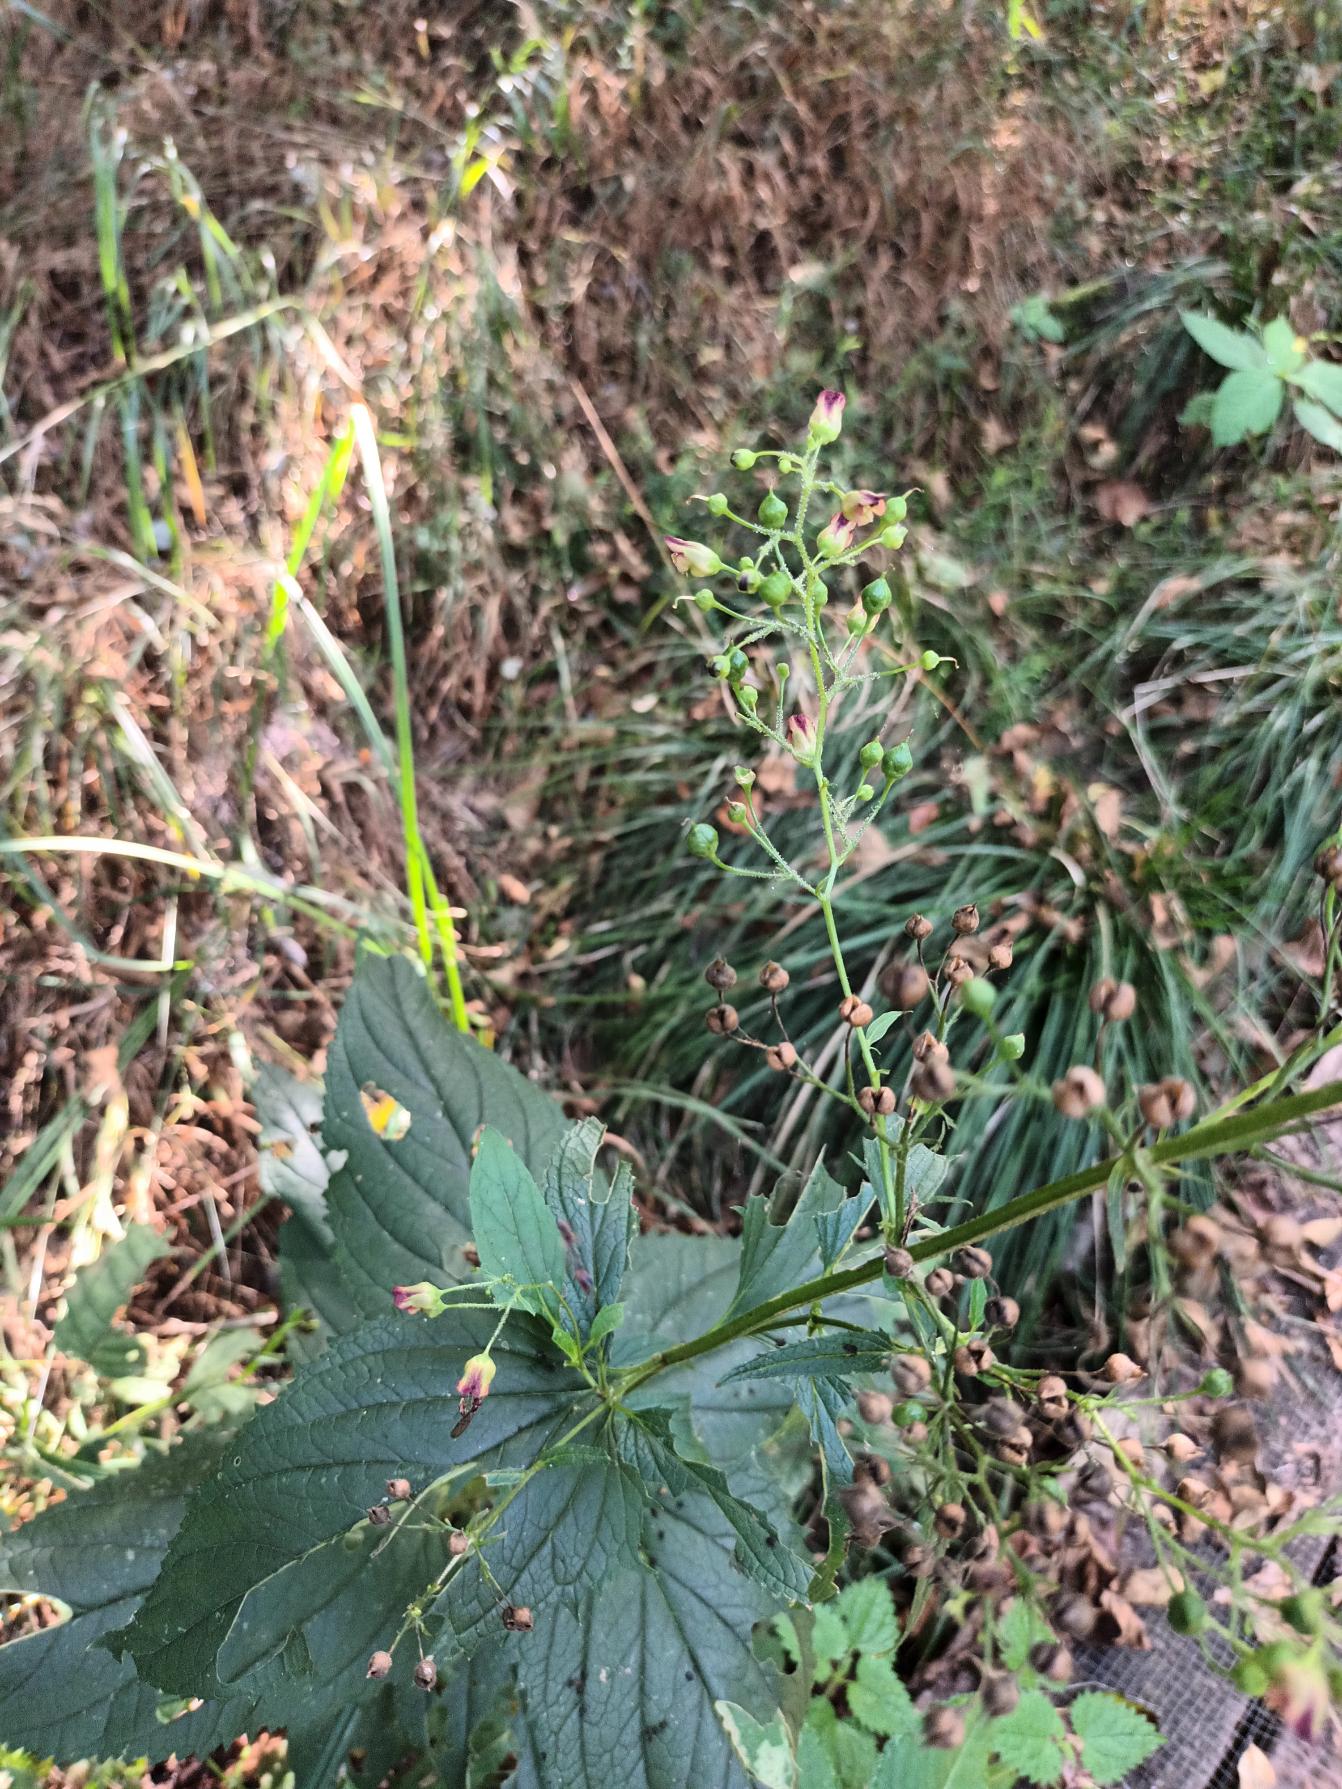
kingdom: Plantae
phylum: Tracheophyta
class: Magnoliopsida
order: Lamiales
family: Scrophulariaceae
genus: Scrophularia
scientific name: Scrophularia nodosa
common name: Knoldet brunrod
